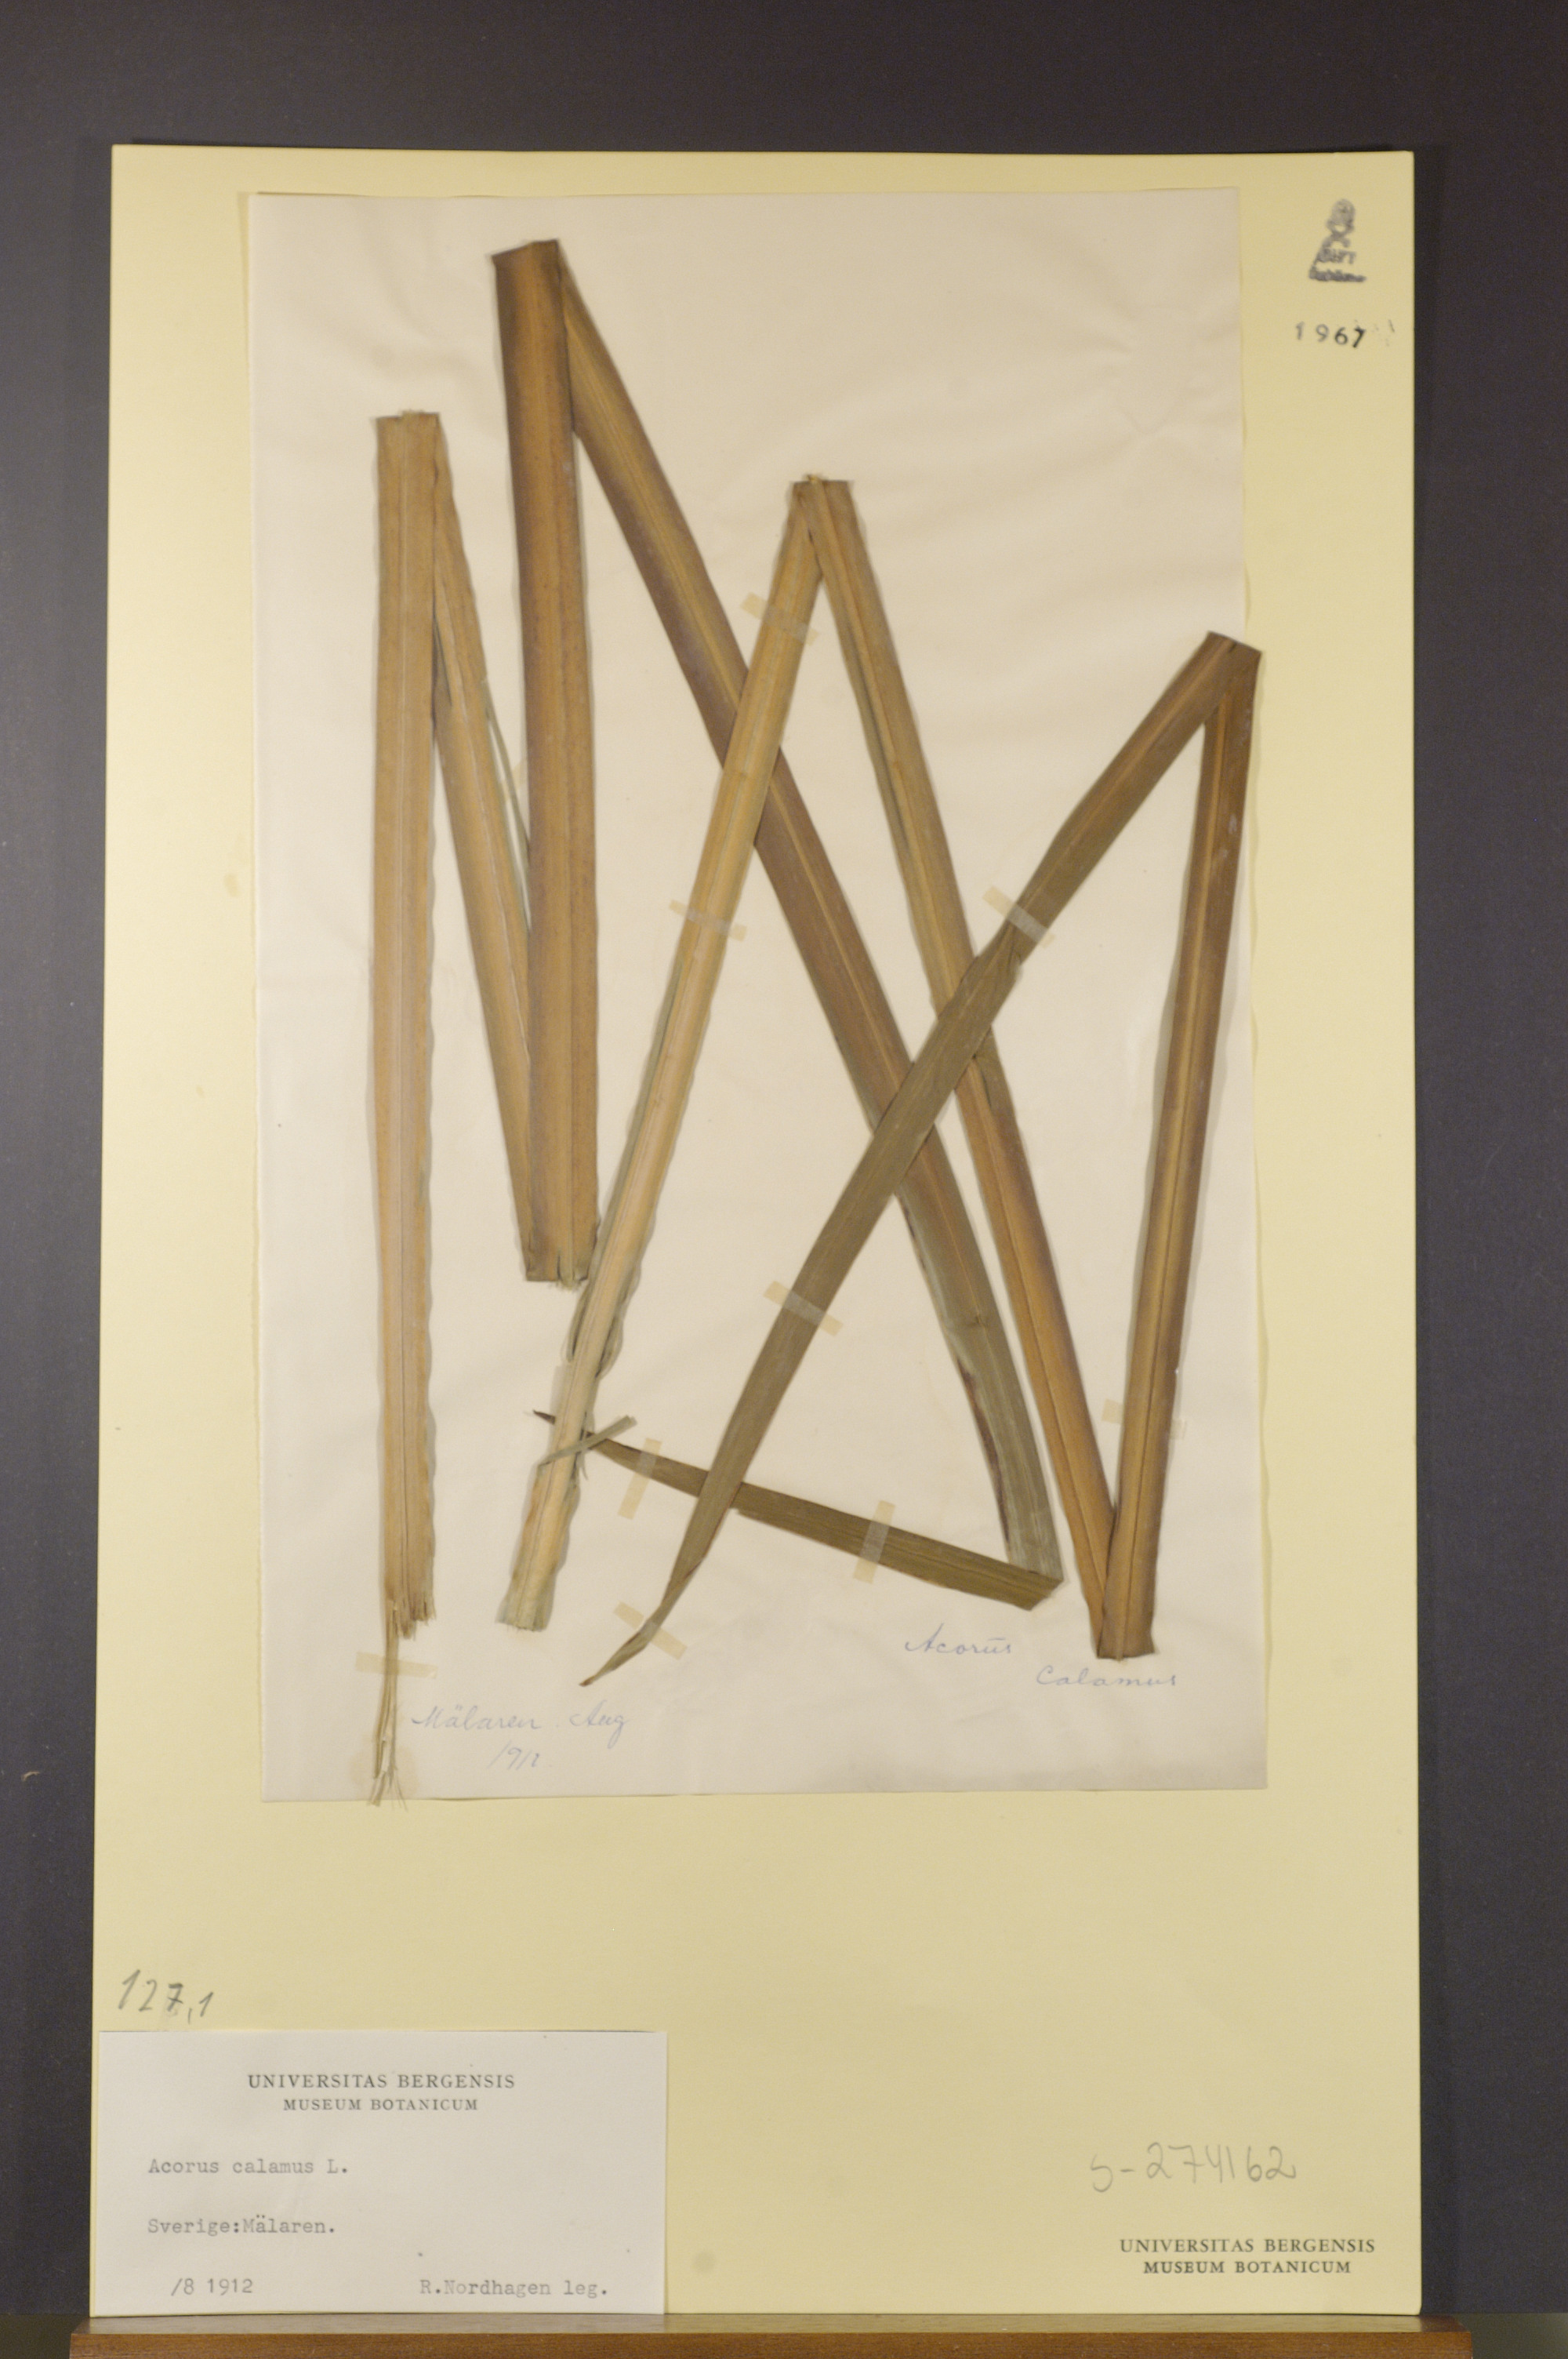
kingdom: Plantae
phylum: Tracheophyta
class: Liliopsida
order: Acorales
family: Acoraceae
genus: Acorus
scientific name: Acorus calamus
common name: Sweet-flag
